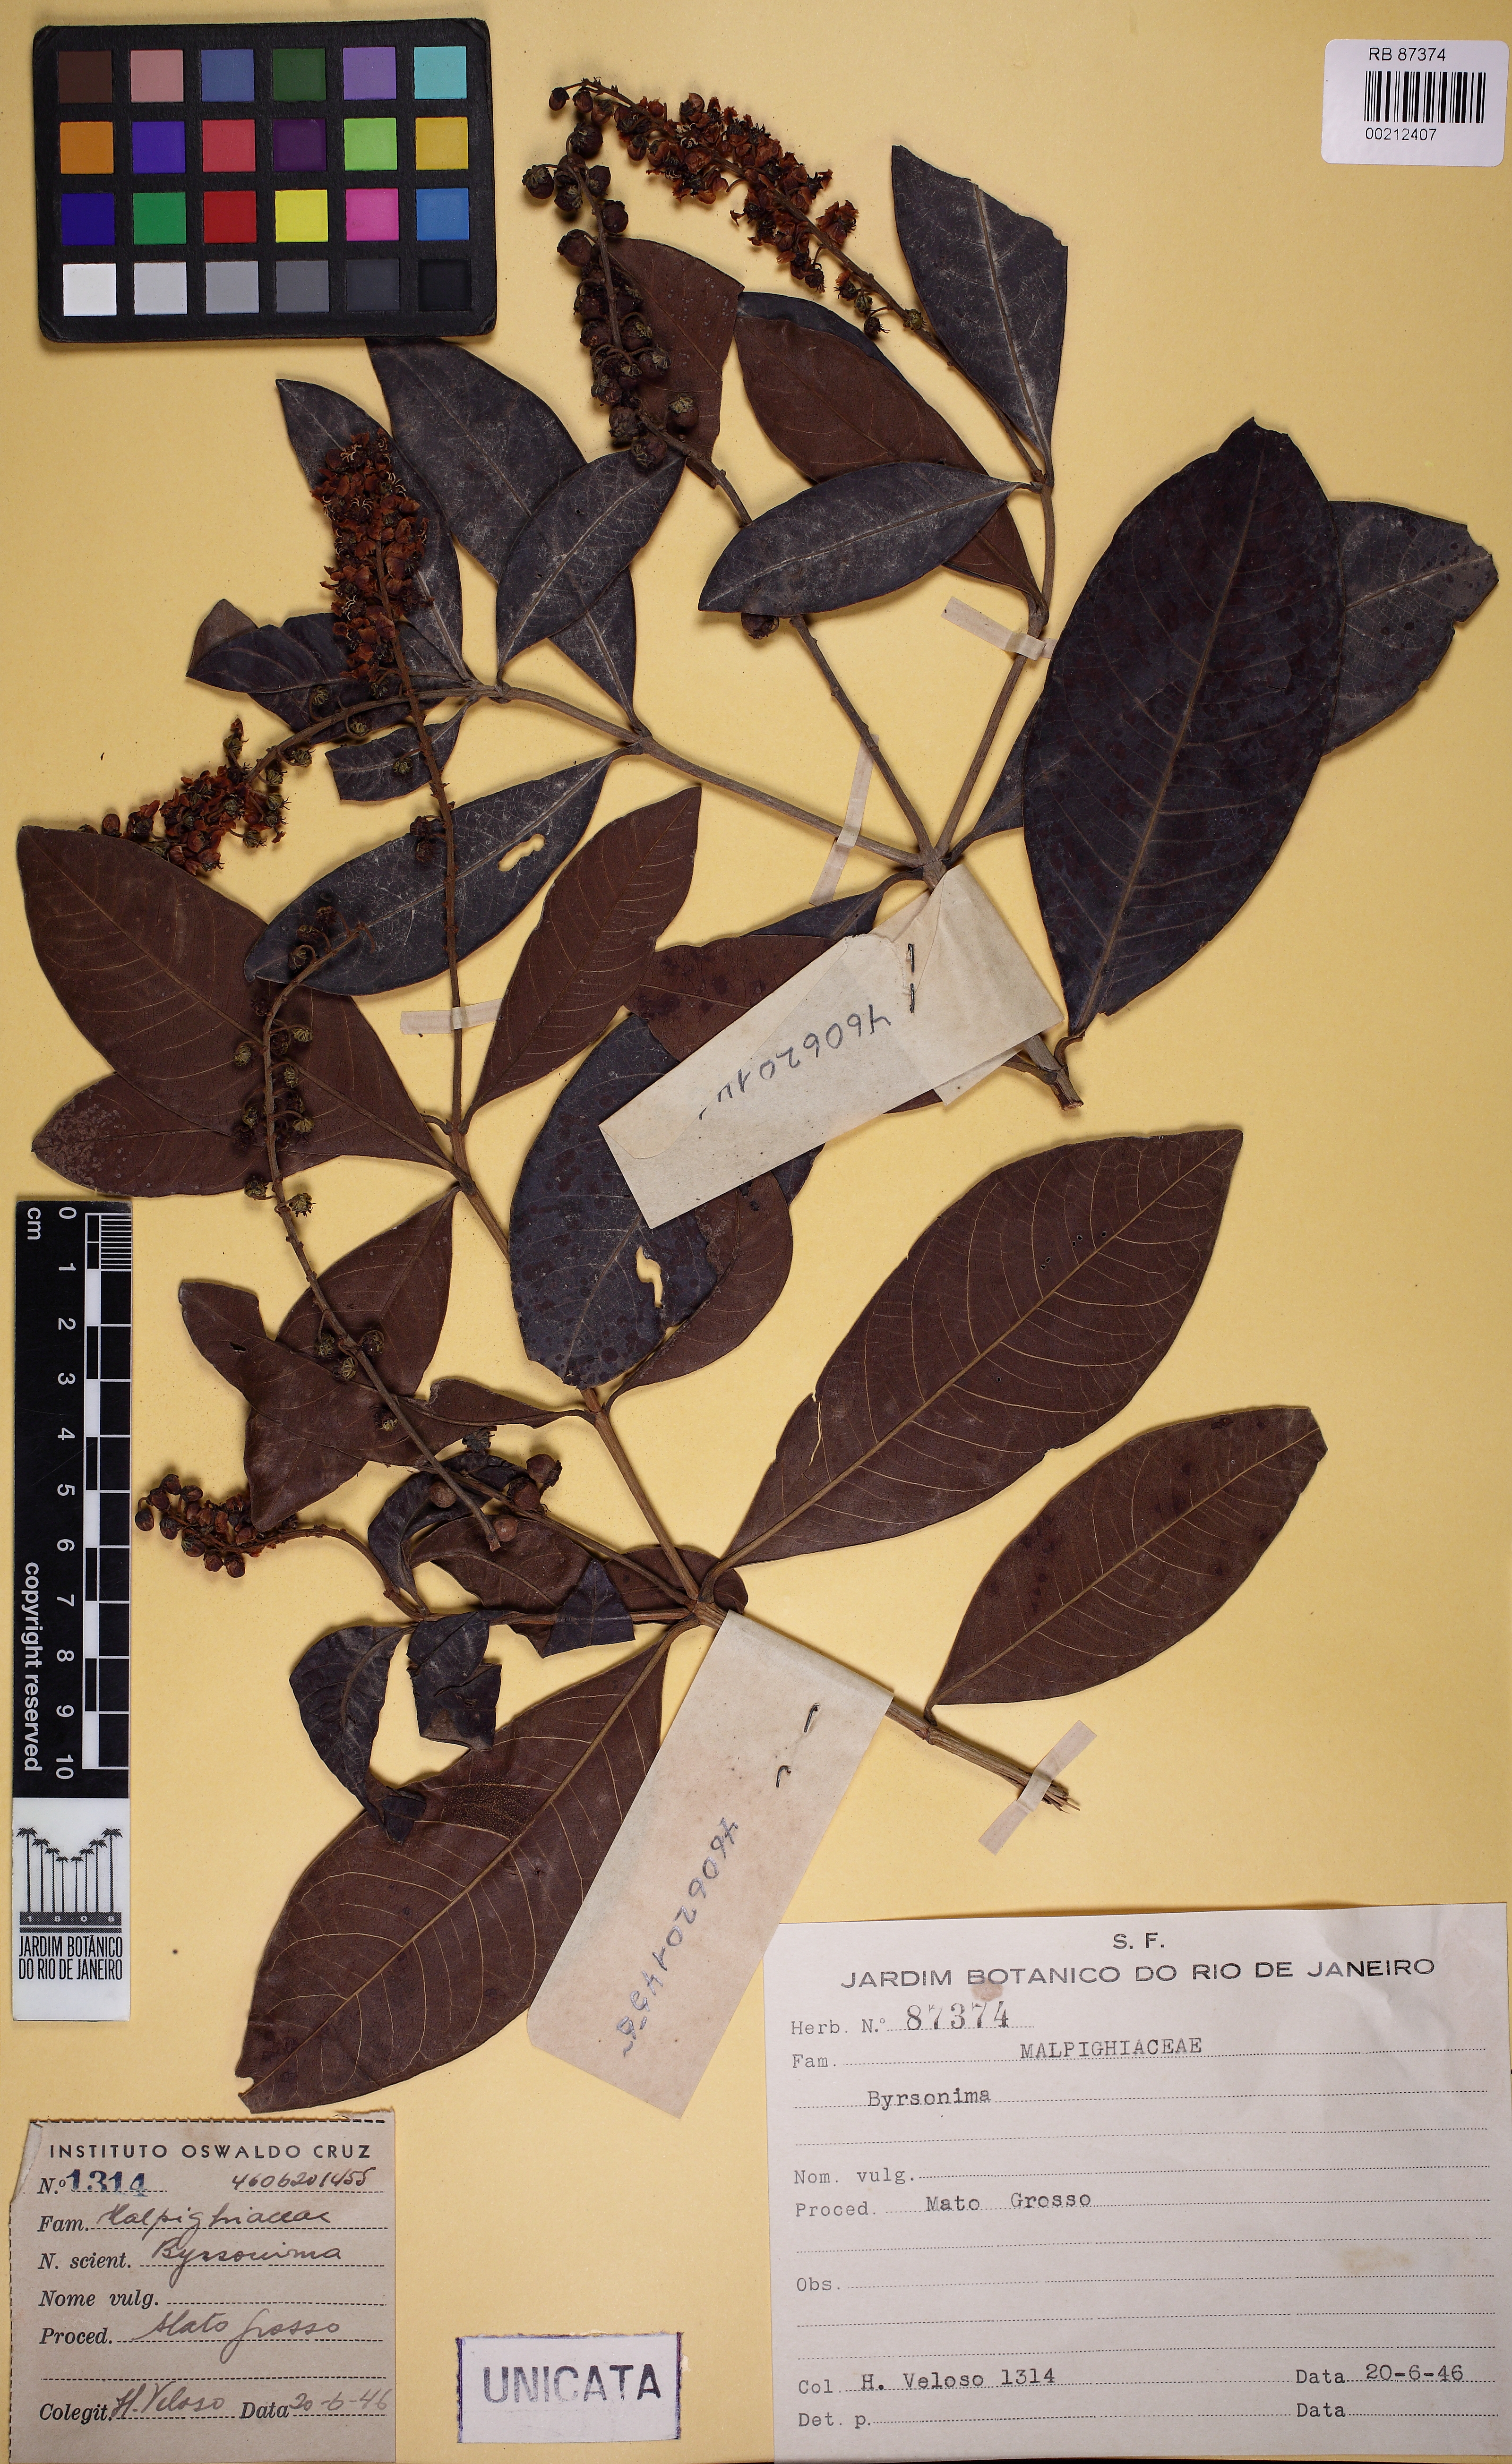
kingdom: Plantae
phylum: Tracheophyta
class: Magnoliopsida
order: Malpighiales
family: Malpighiaceae
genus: Byrsonima
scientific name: Byrsonima intermedia
